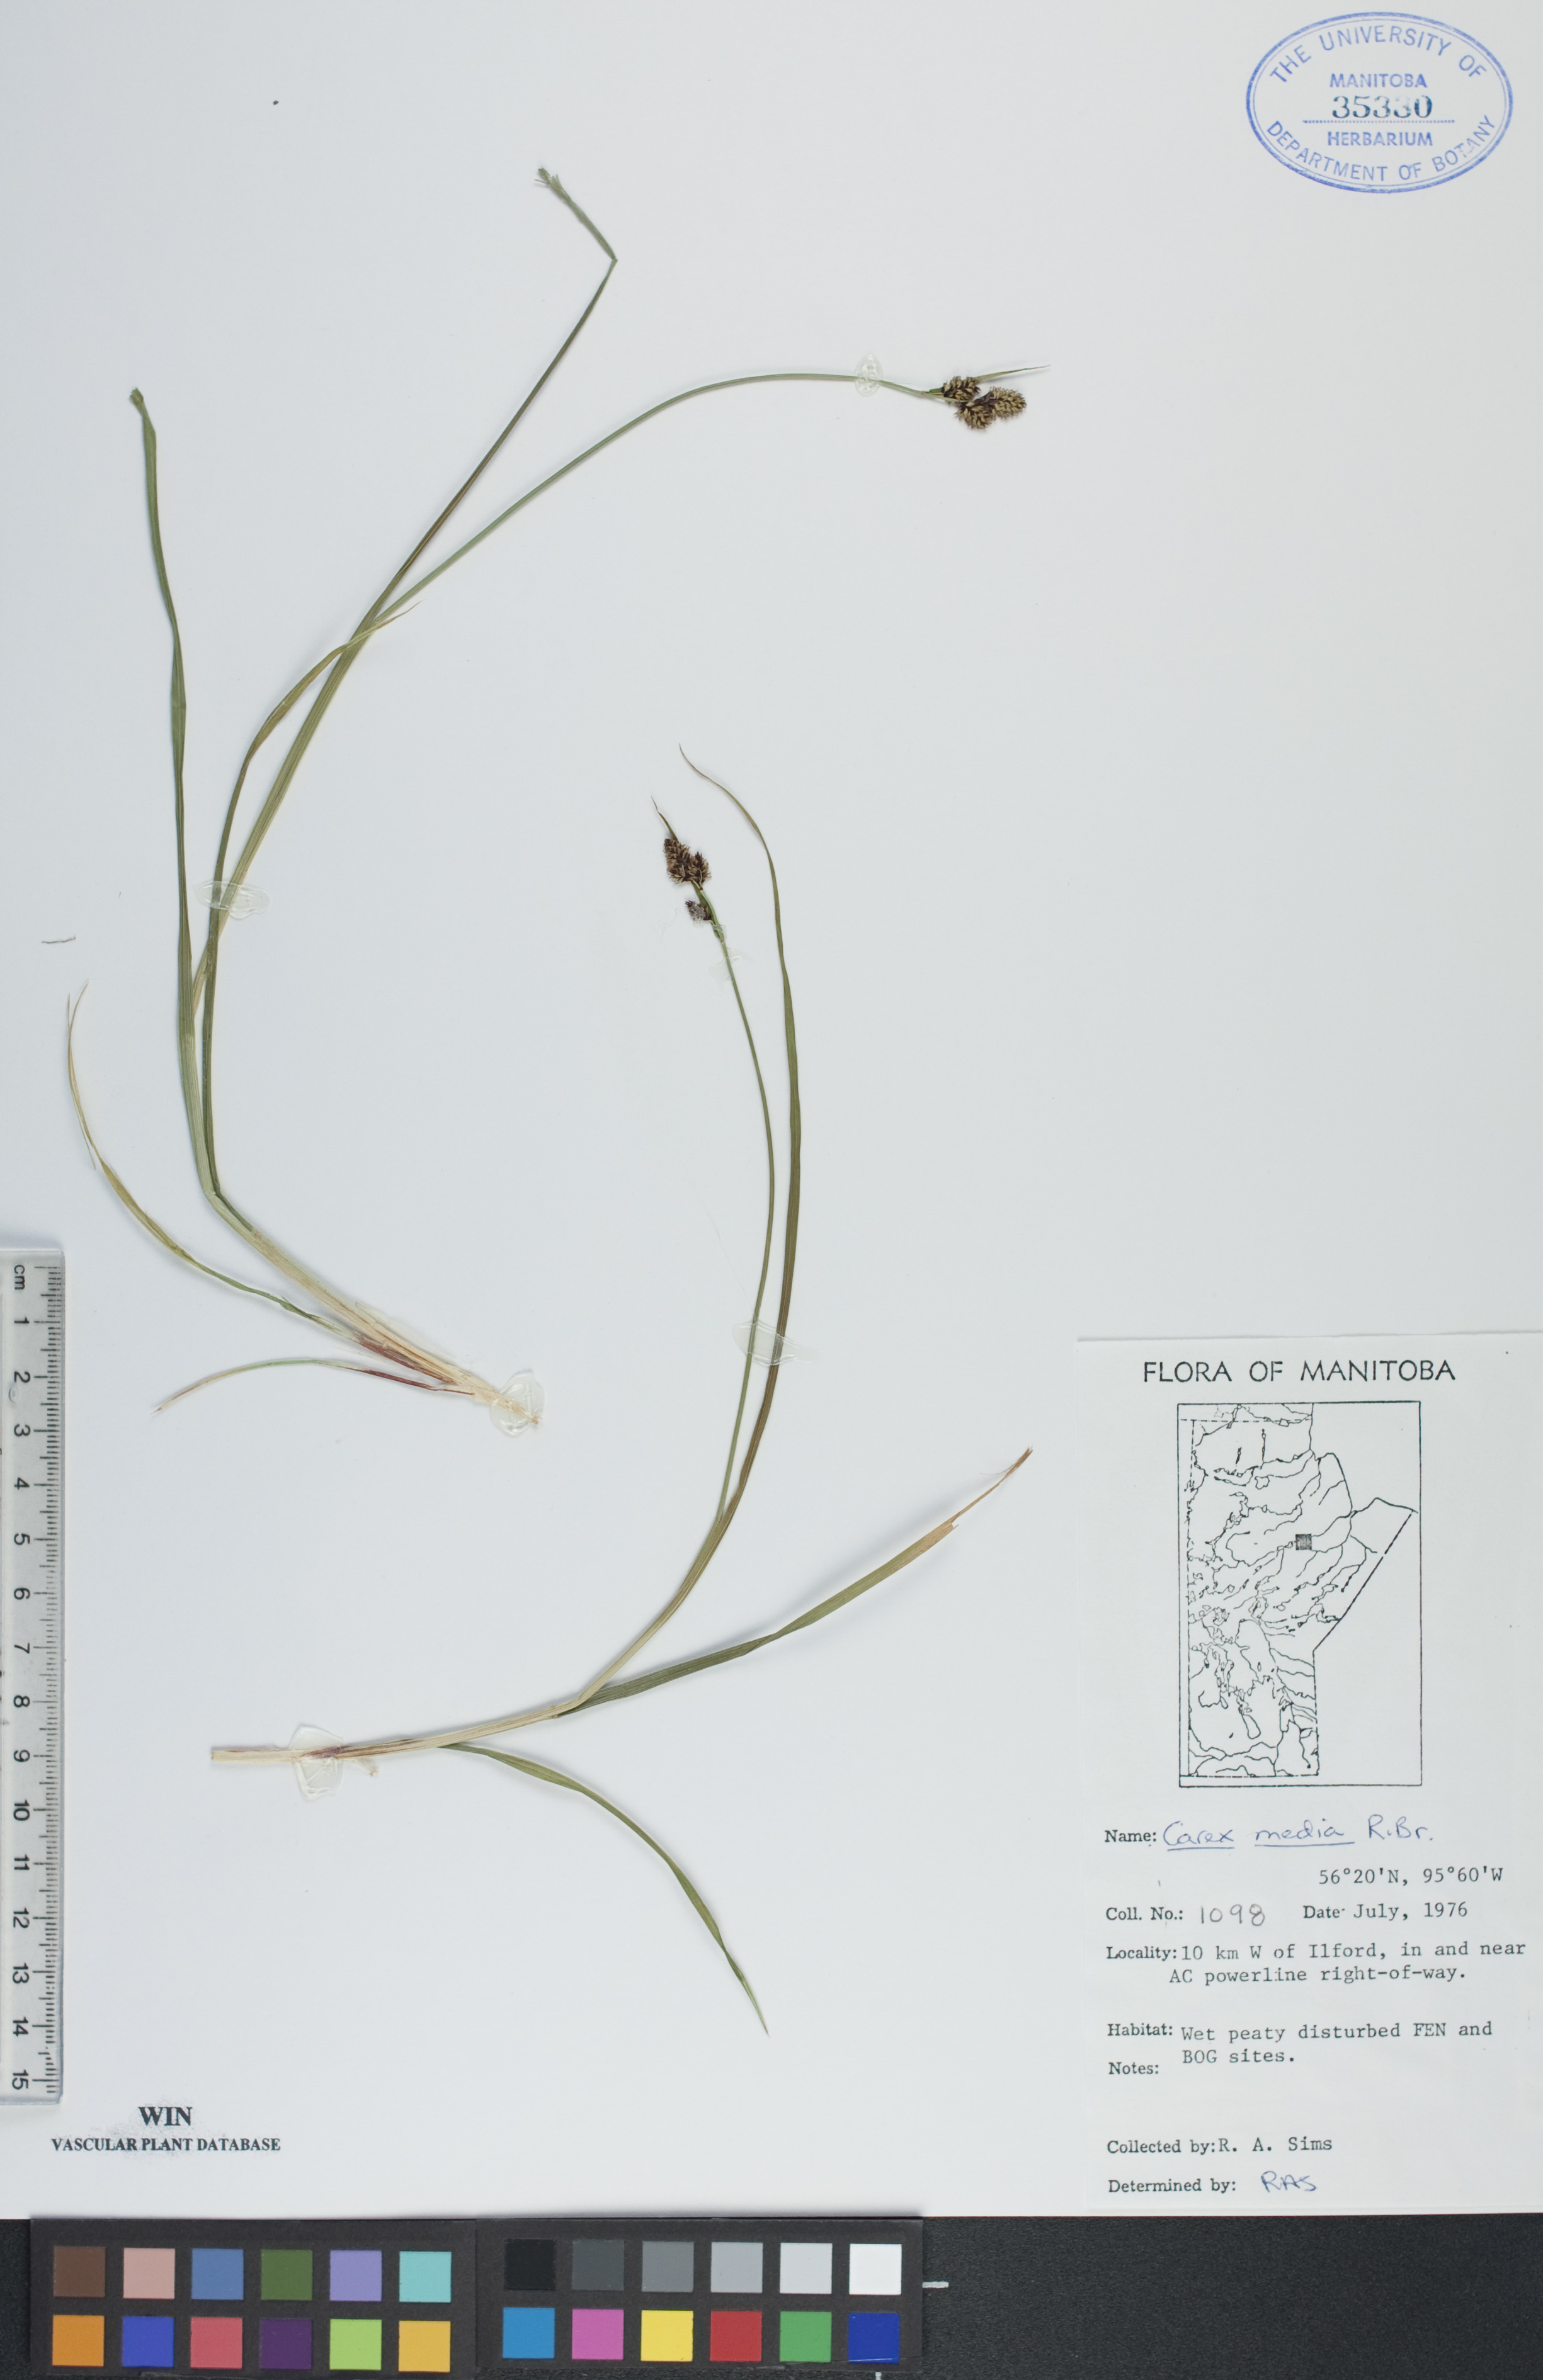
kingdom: Plantae
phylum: Tracheophyta
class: Liliopsida
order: Poales
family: Cyperaceae
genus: Carex
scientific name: Carex media
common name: Alpine sedge
